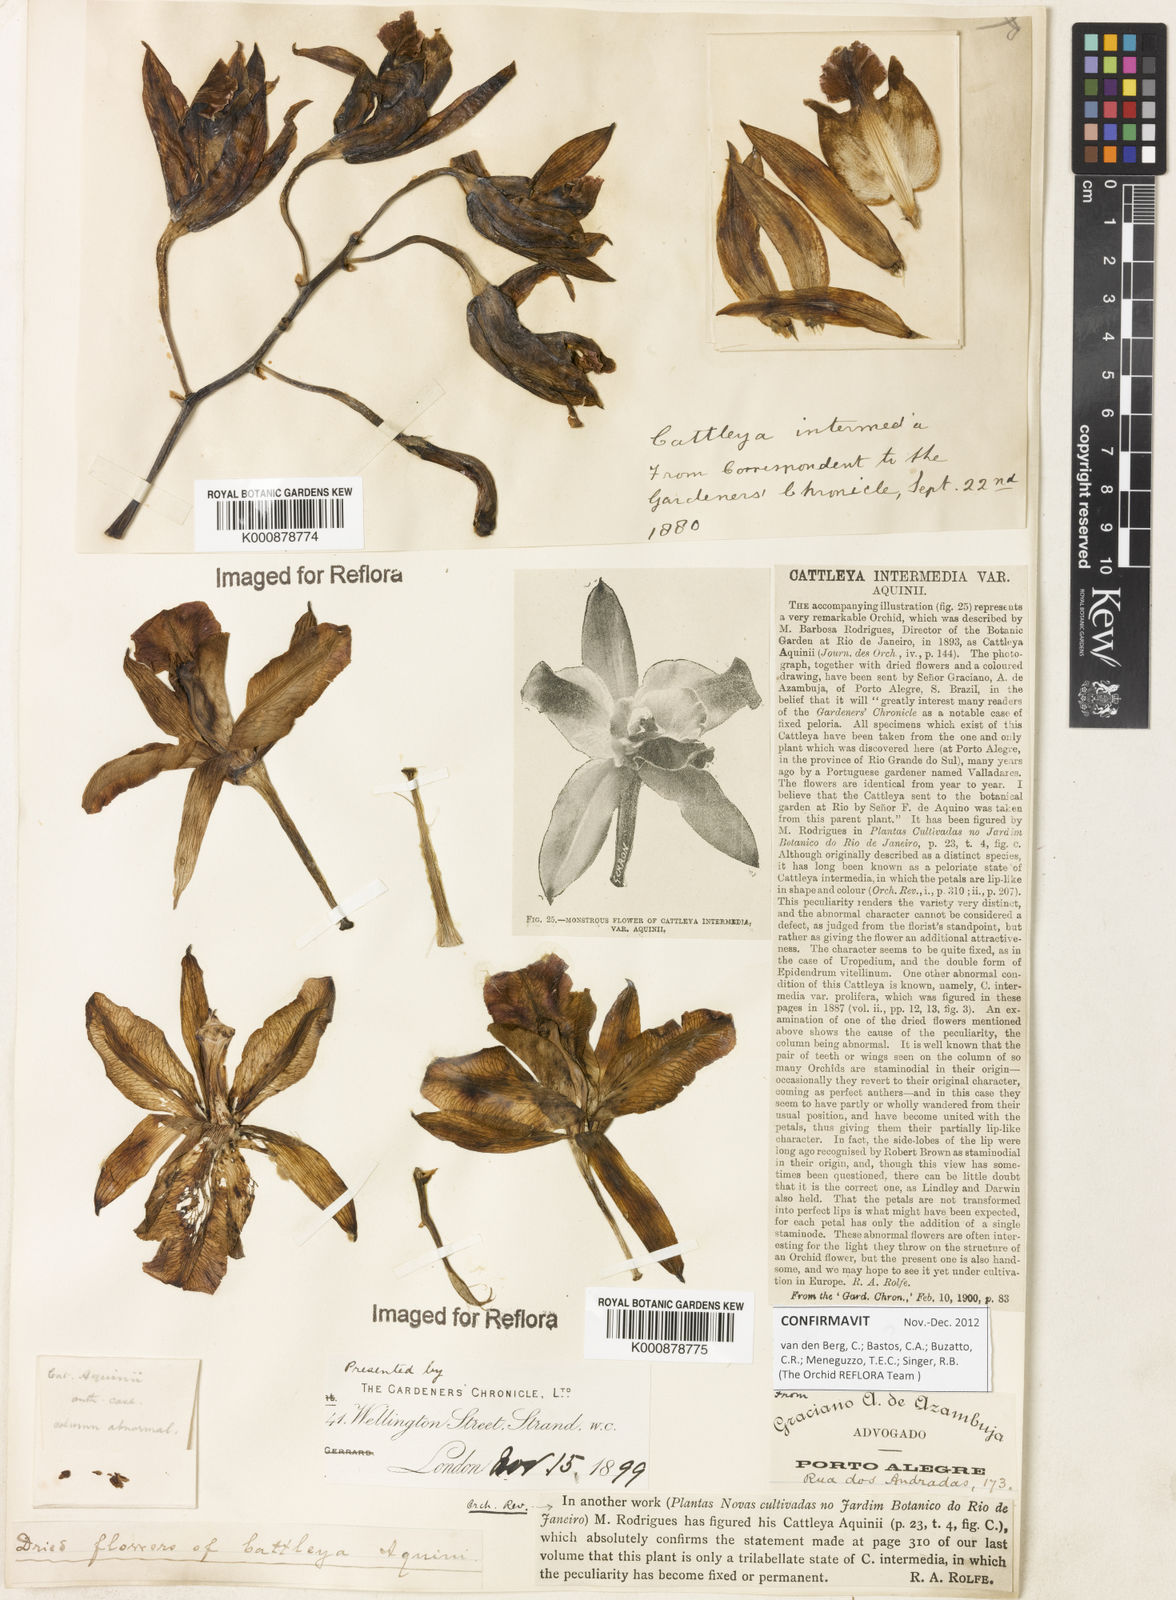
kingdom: Plantae
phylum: Tracheophyta
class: Liliopsida
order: Asparagales
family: Orchidaceae
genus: Cattleya
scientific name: Cattleya intermedia
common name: Intermediate cattleya
